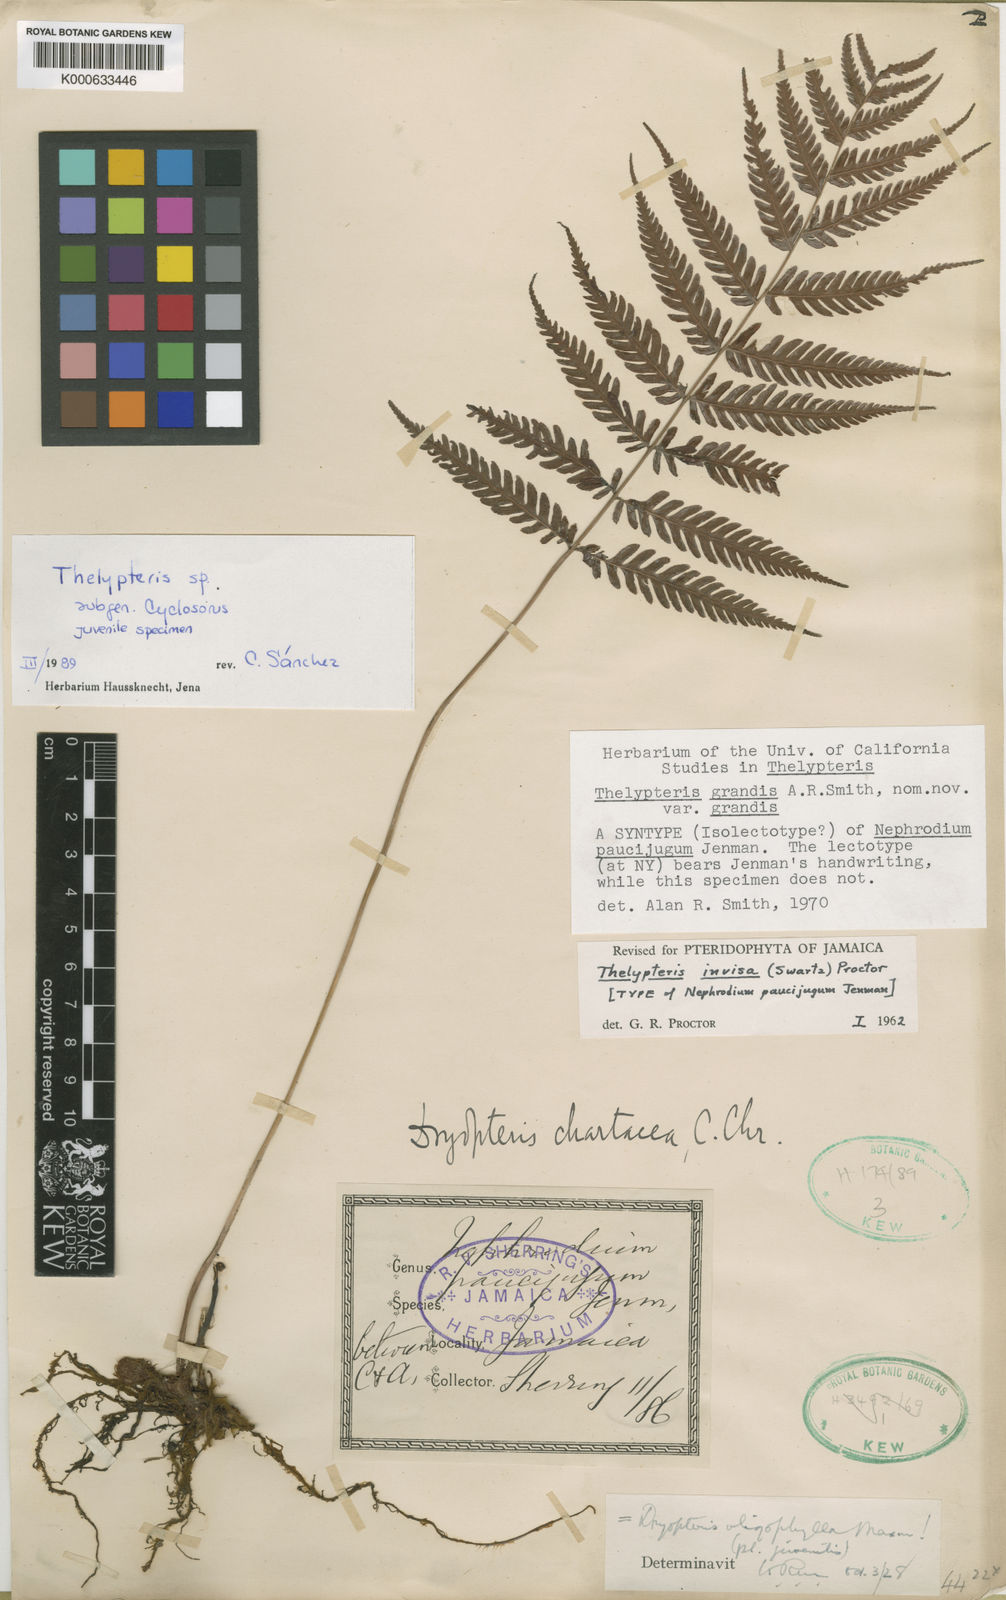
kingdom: Plantae
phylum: Tracheophyta
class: Polypodiopsida
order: Polypodiales
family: Thelypteridaceae
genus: Christella
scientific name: Christella
